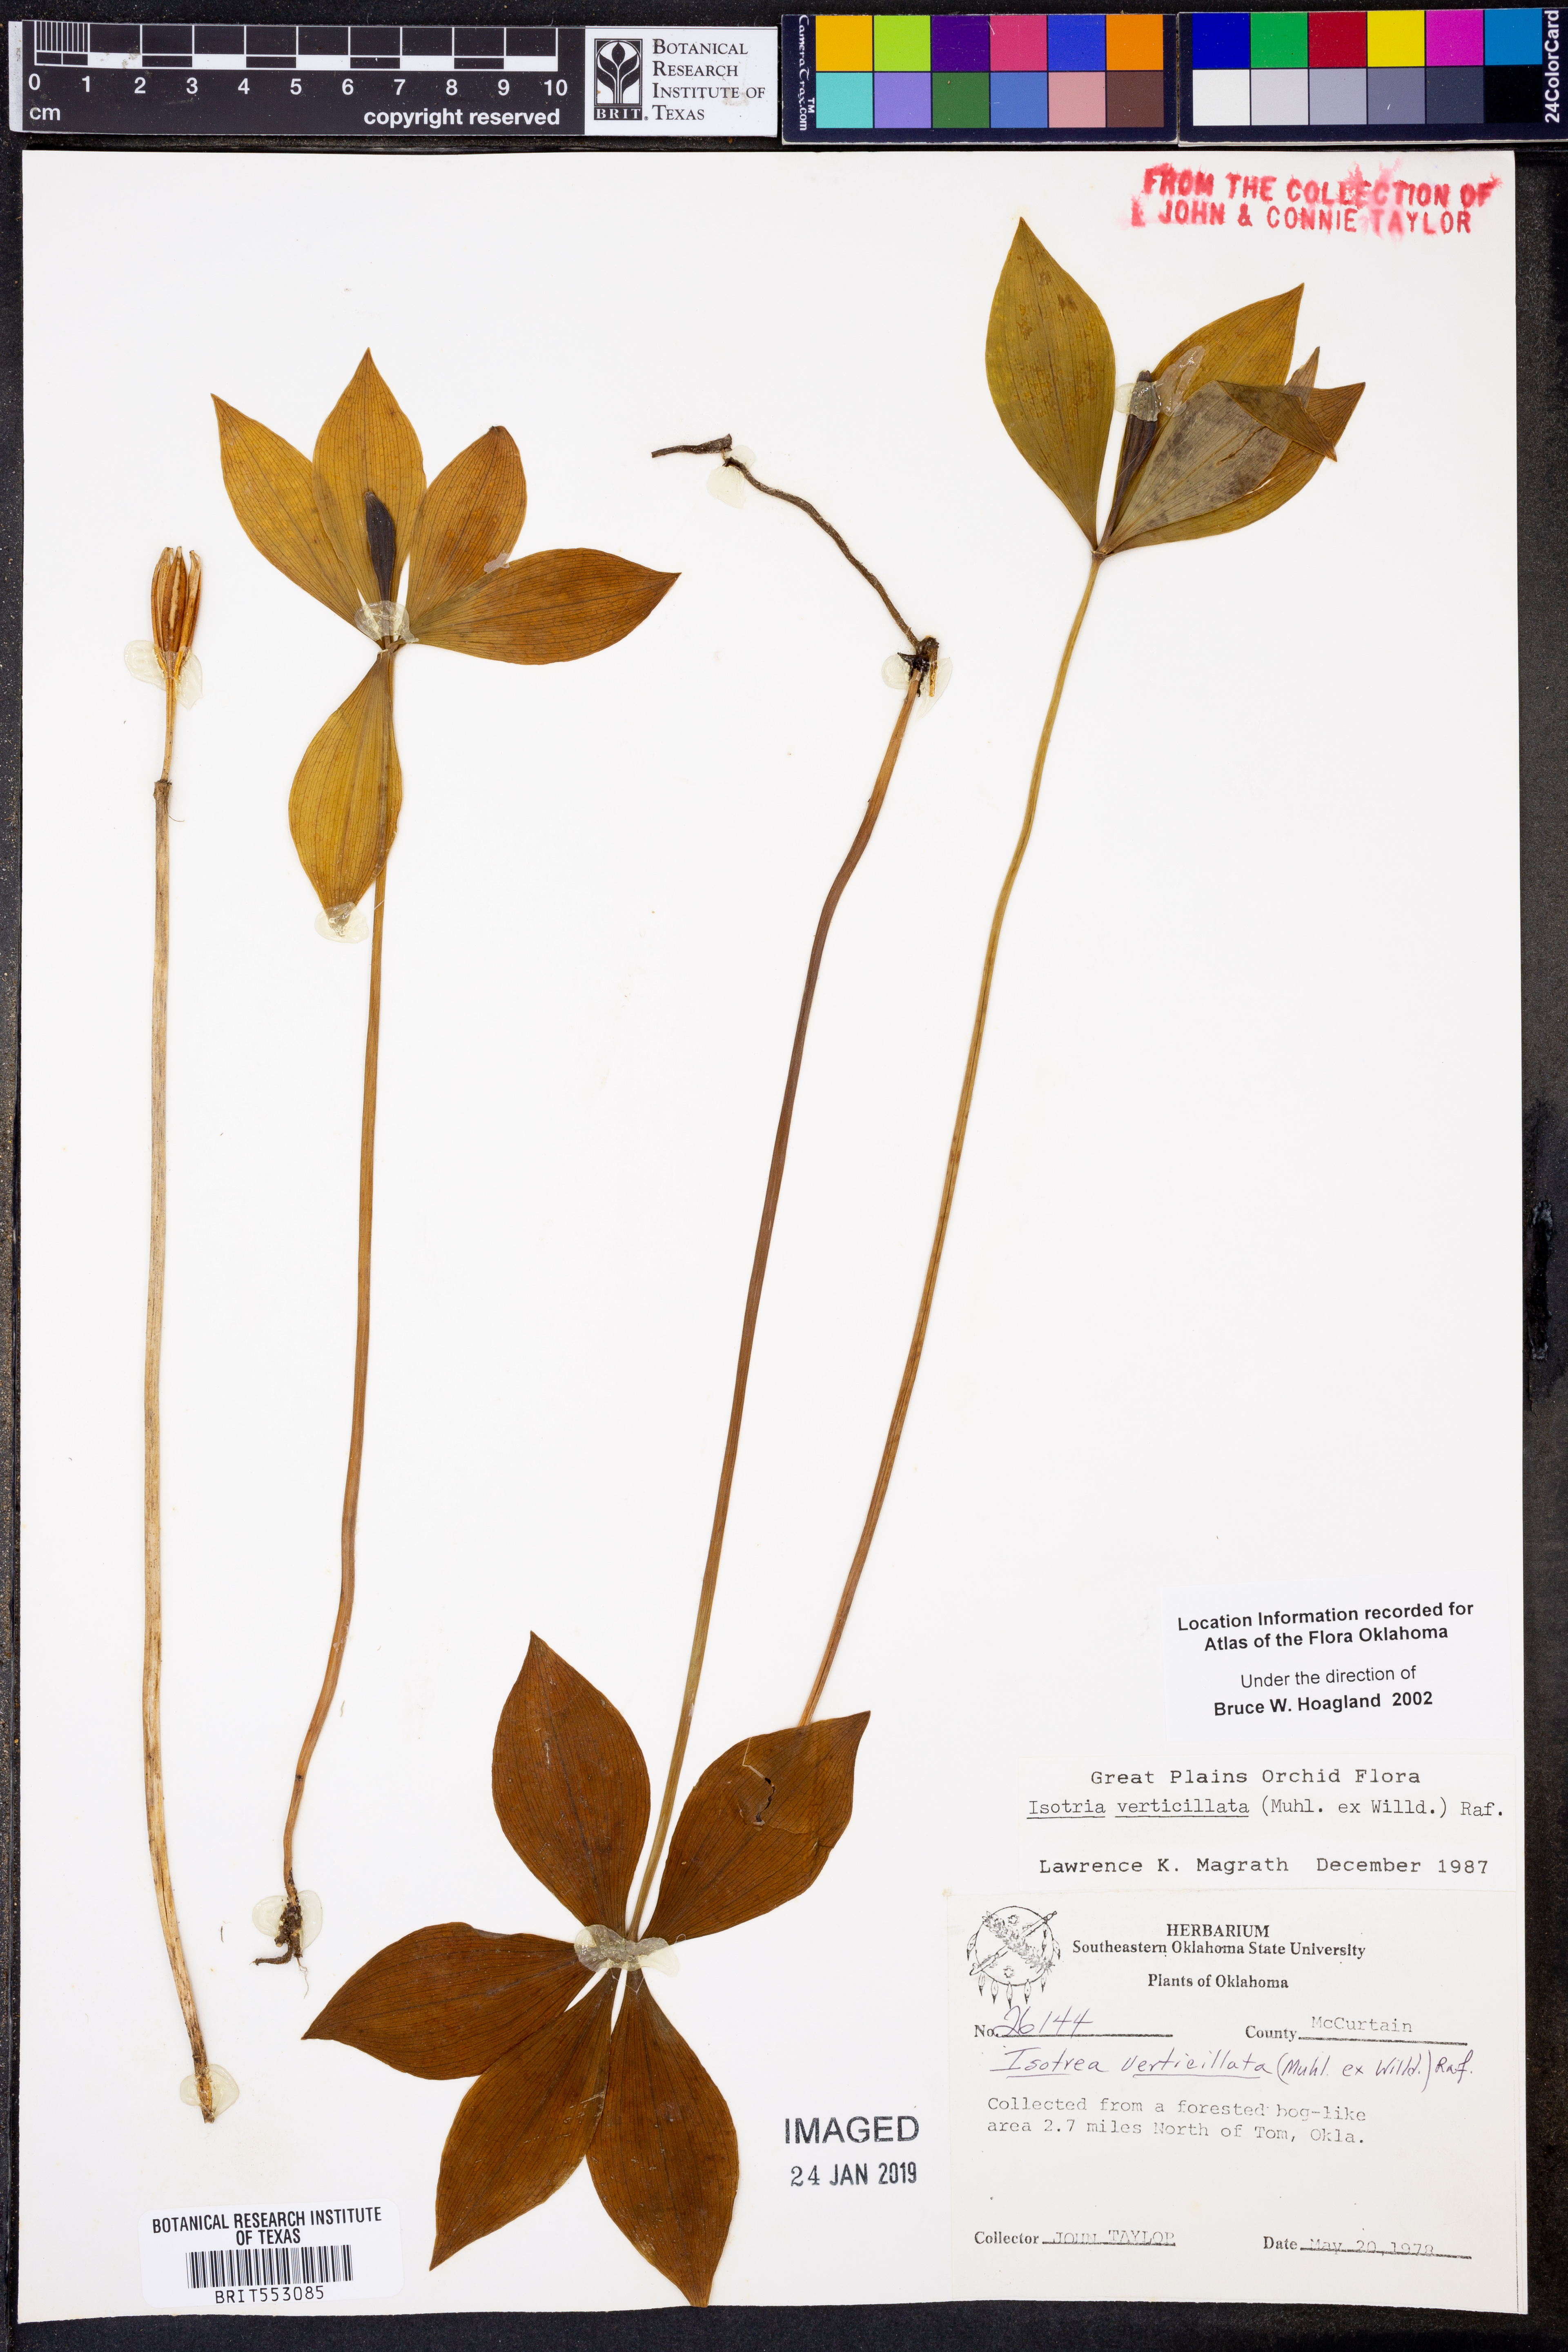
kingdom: Plantae
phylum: Tracheophyta
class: Liliopsida
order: Asparagales
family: Orchidaceae
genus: Isotria
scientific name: Isotria verticillata
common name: Large whorled pogonia
